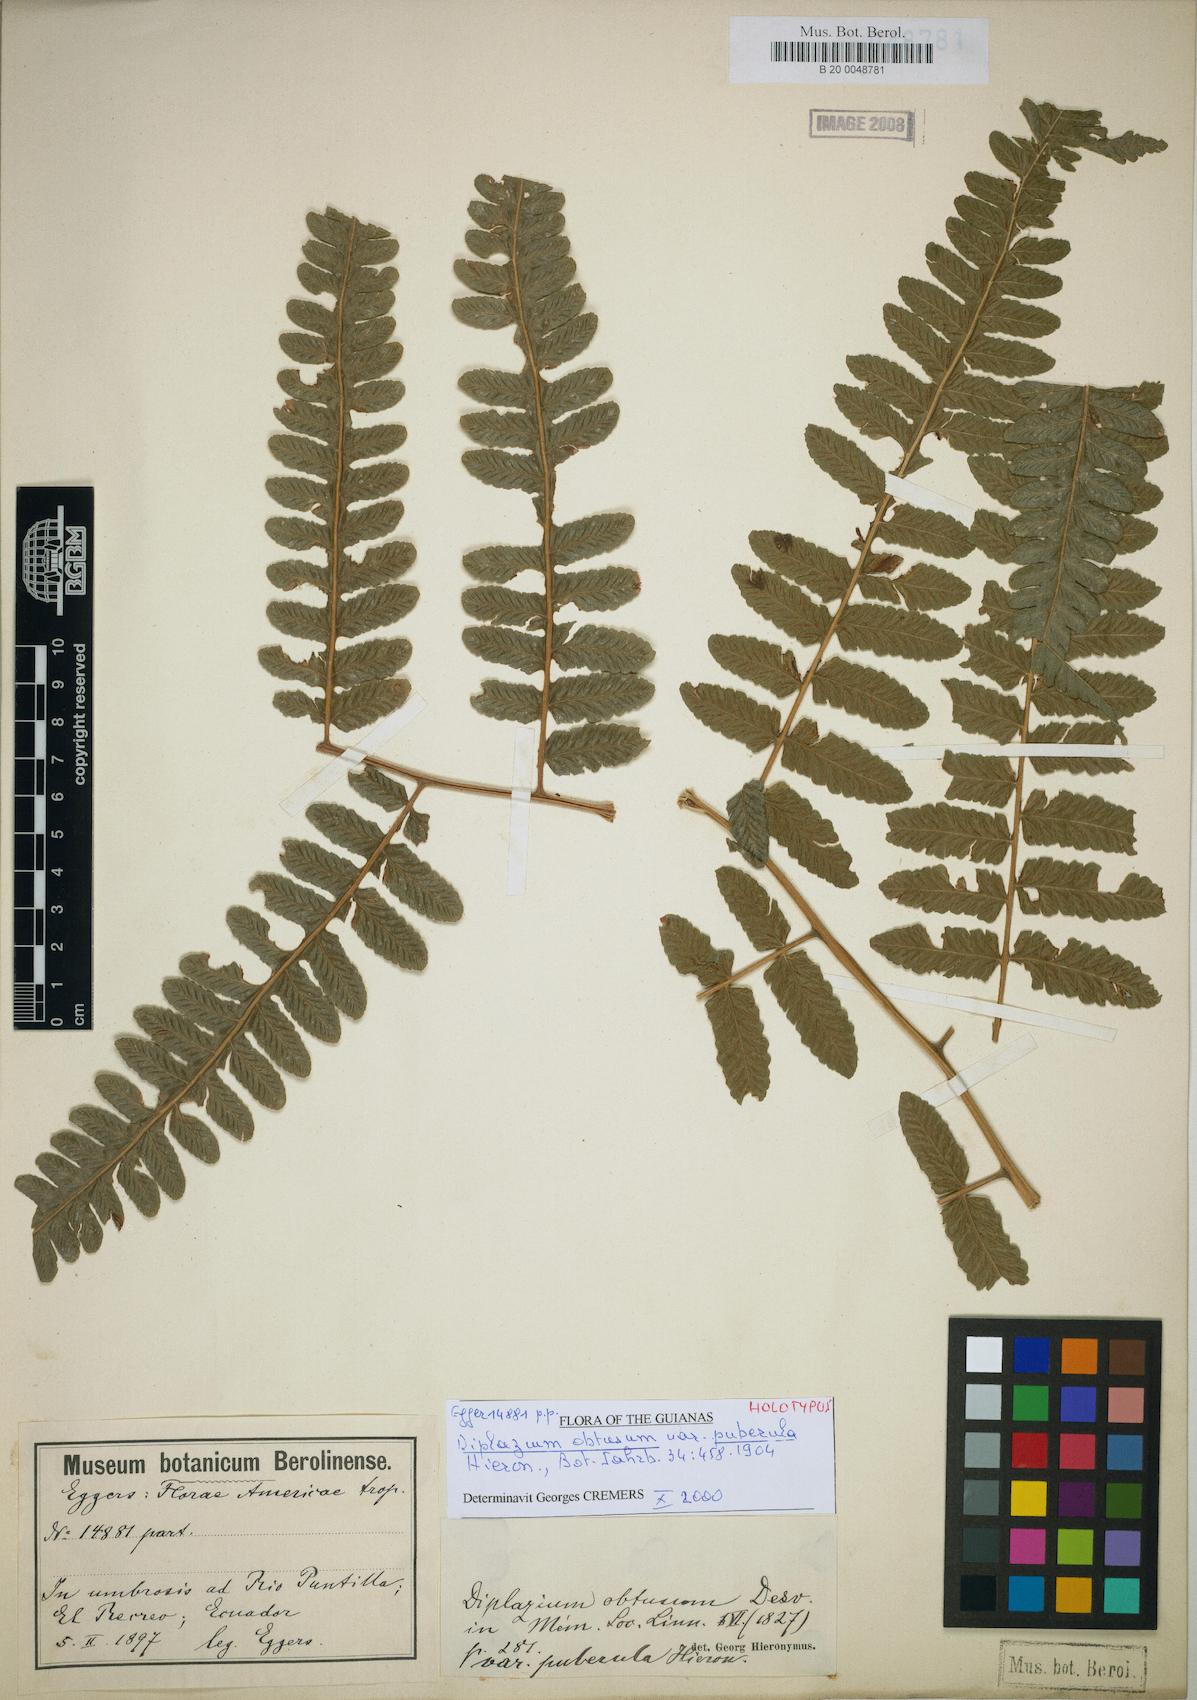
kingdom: Plantae
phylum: Tracheophyta
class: Polypodiopsida
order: Polypodiales
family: Athyriaceae
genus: Diplazium
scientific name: Diplazium striatum
